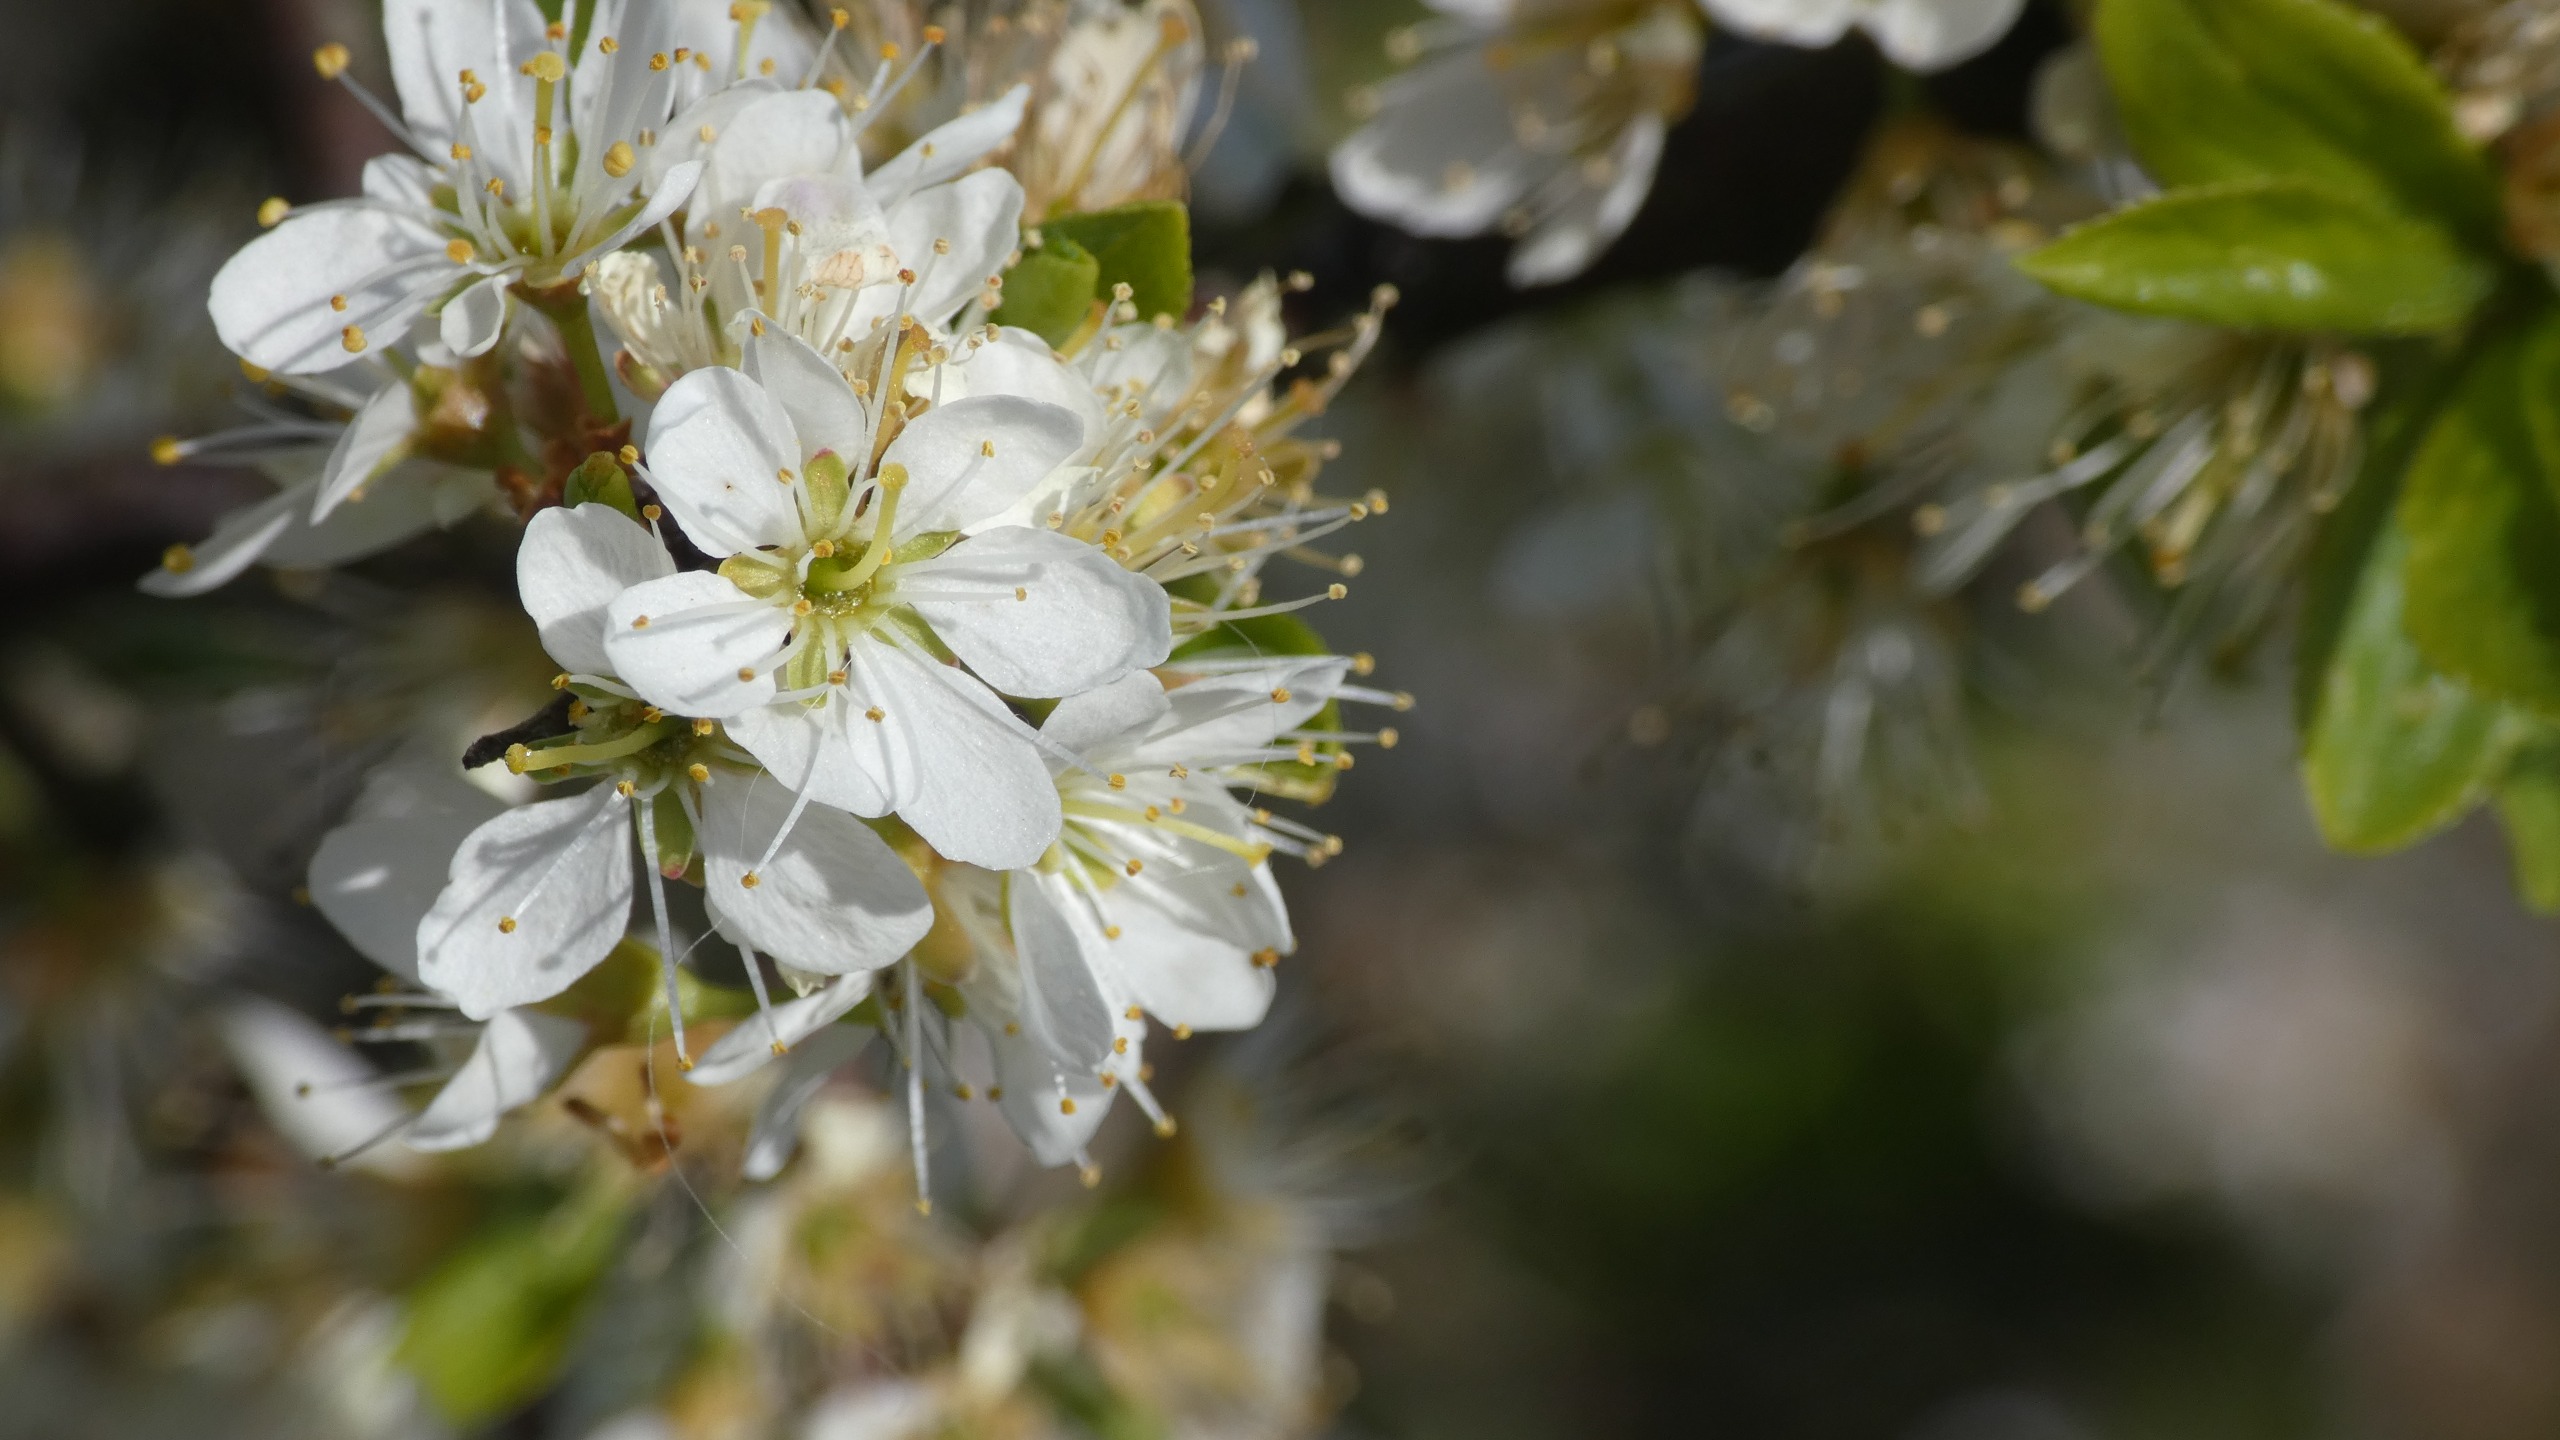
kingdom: Plantae
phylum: Tracheophyta
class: Magnoliopsida
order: Rosales
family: Rosaceae
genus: Prunus
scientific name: Prunus spinosa
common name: Slåen
